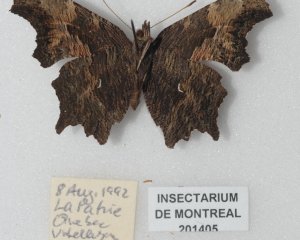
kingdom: Animalia
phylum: Arthropoda
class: Insecta
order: Lepidoptera
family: Nymphalidae
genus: Polygonia
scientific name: Polygonia progne
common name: Gray Comma
